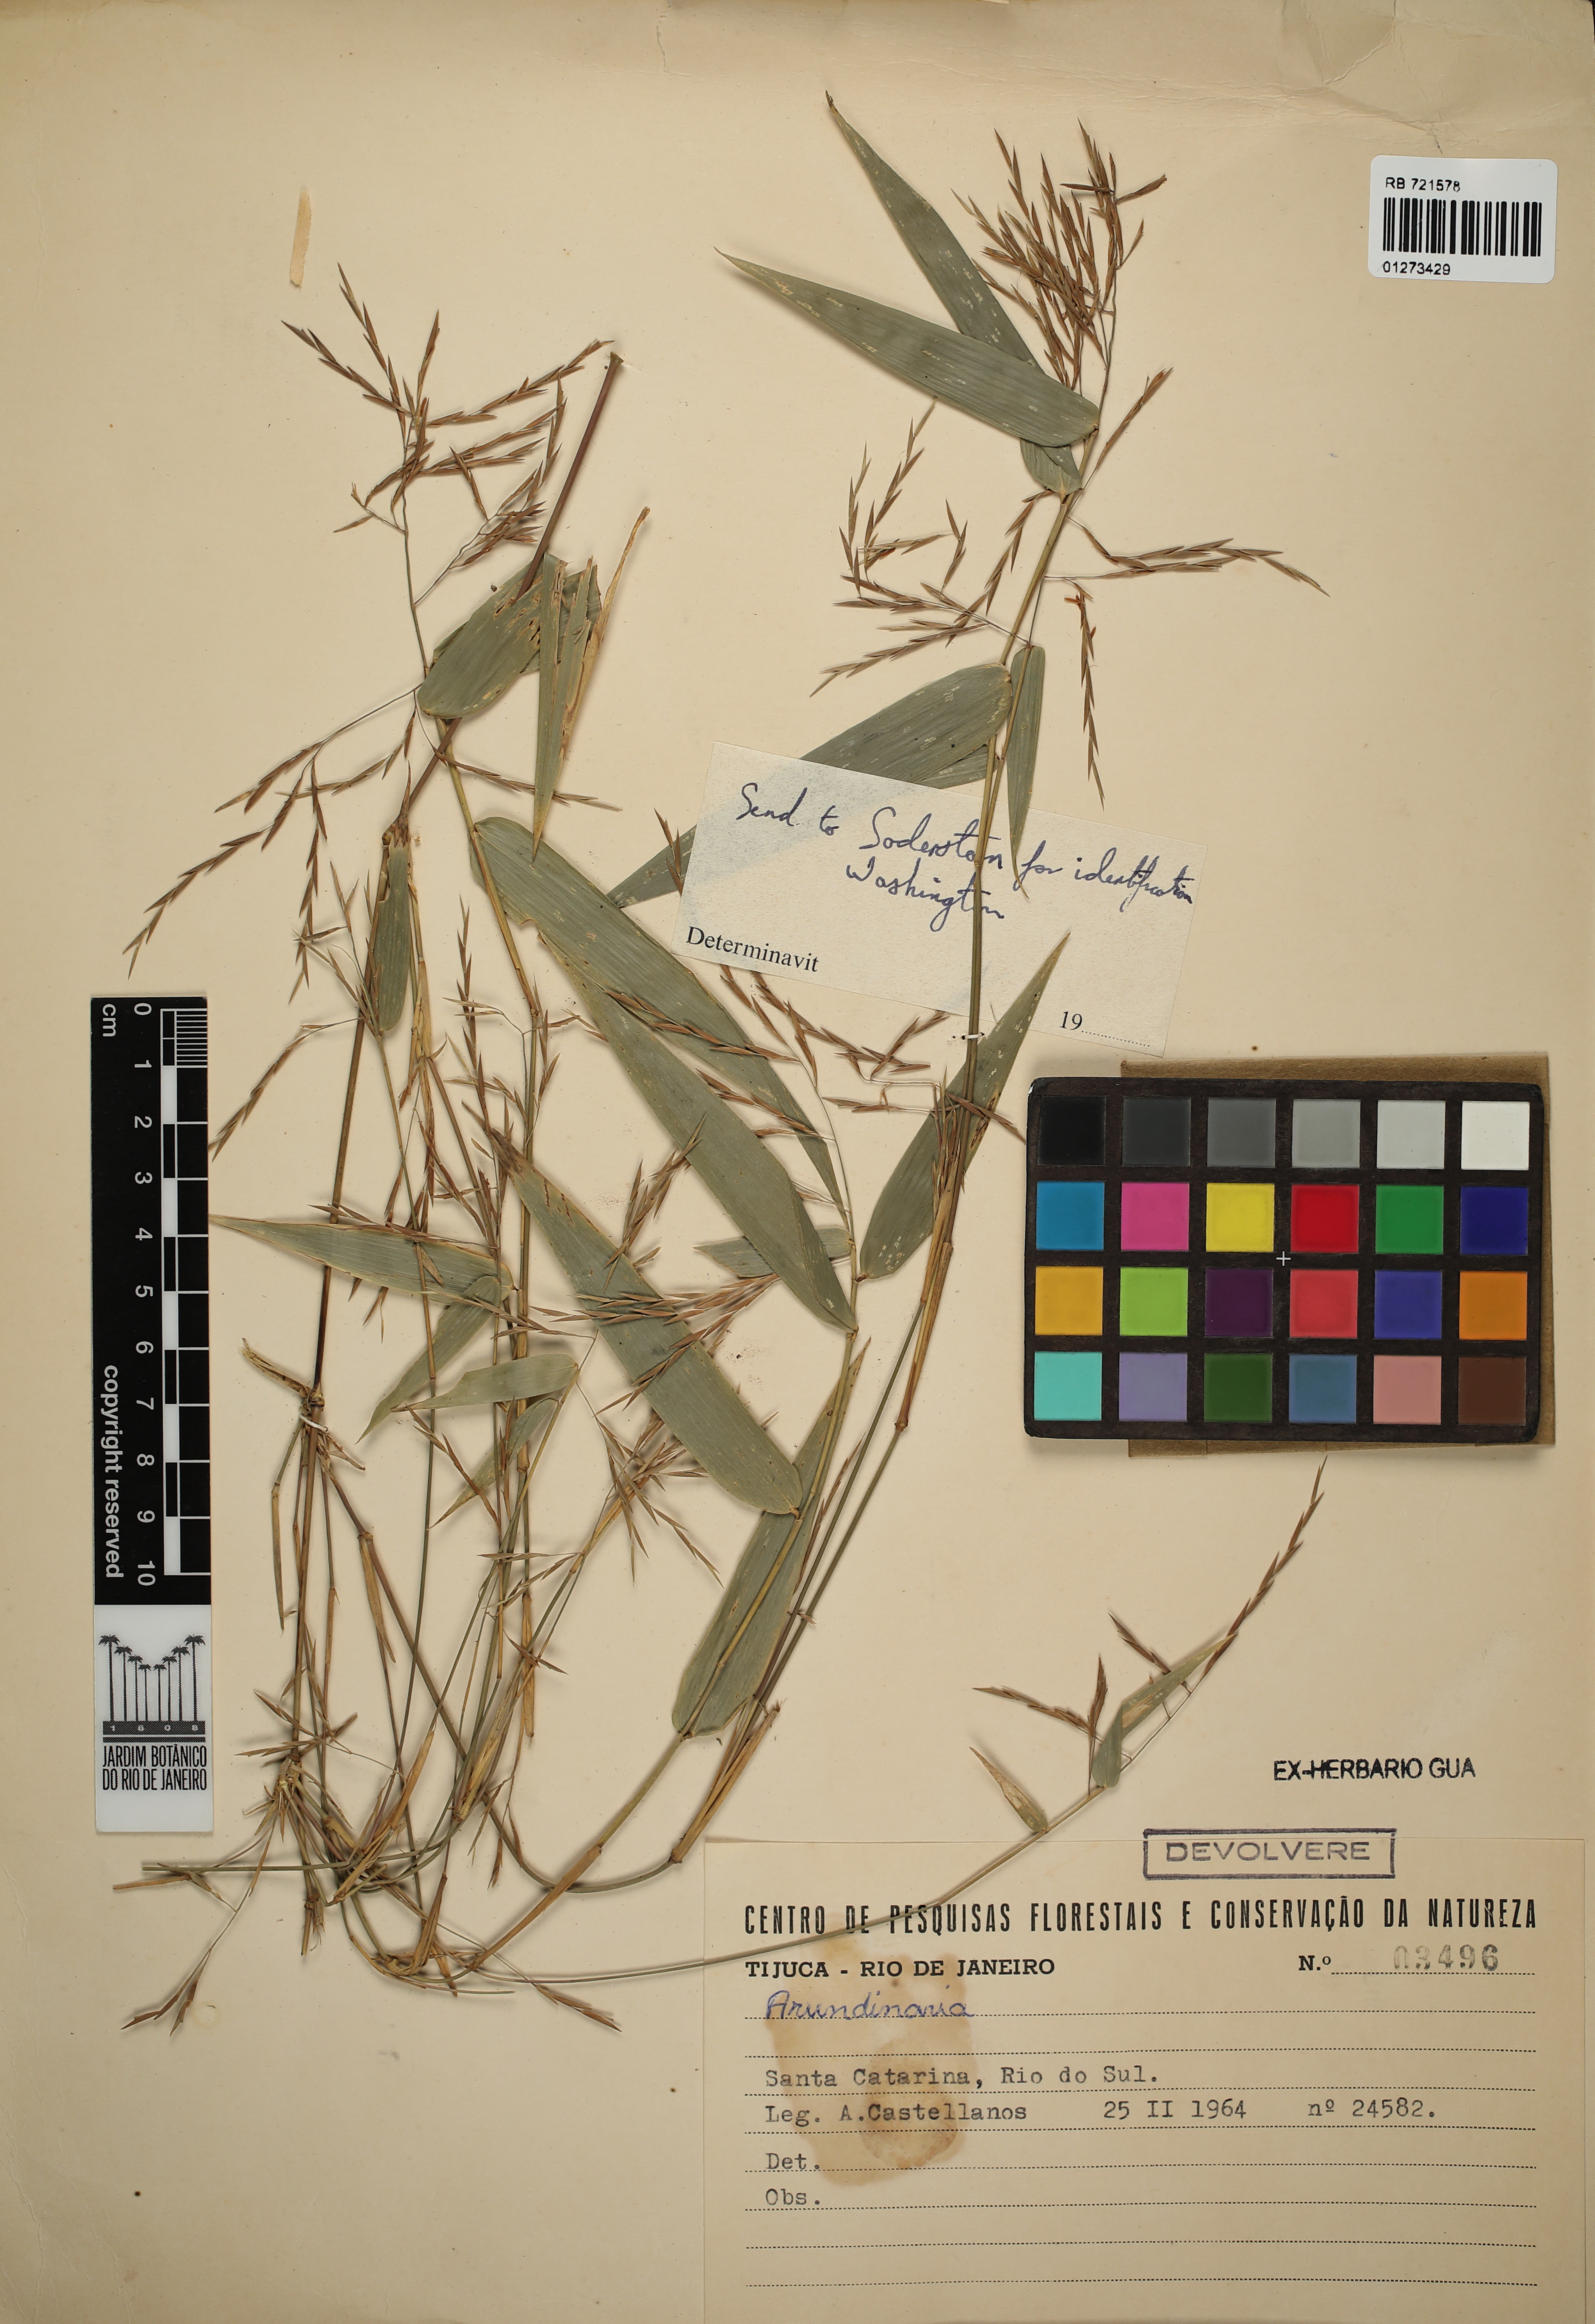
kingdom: Plantae
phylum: Tracheophyta
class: Liliopsida
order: Poales
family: Poaceae
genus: Arundinaria
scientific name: Arundinaria
